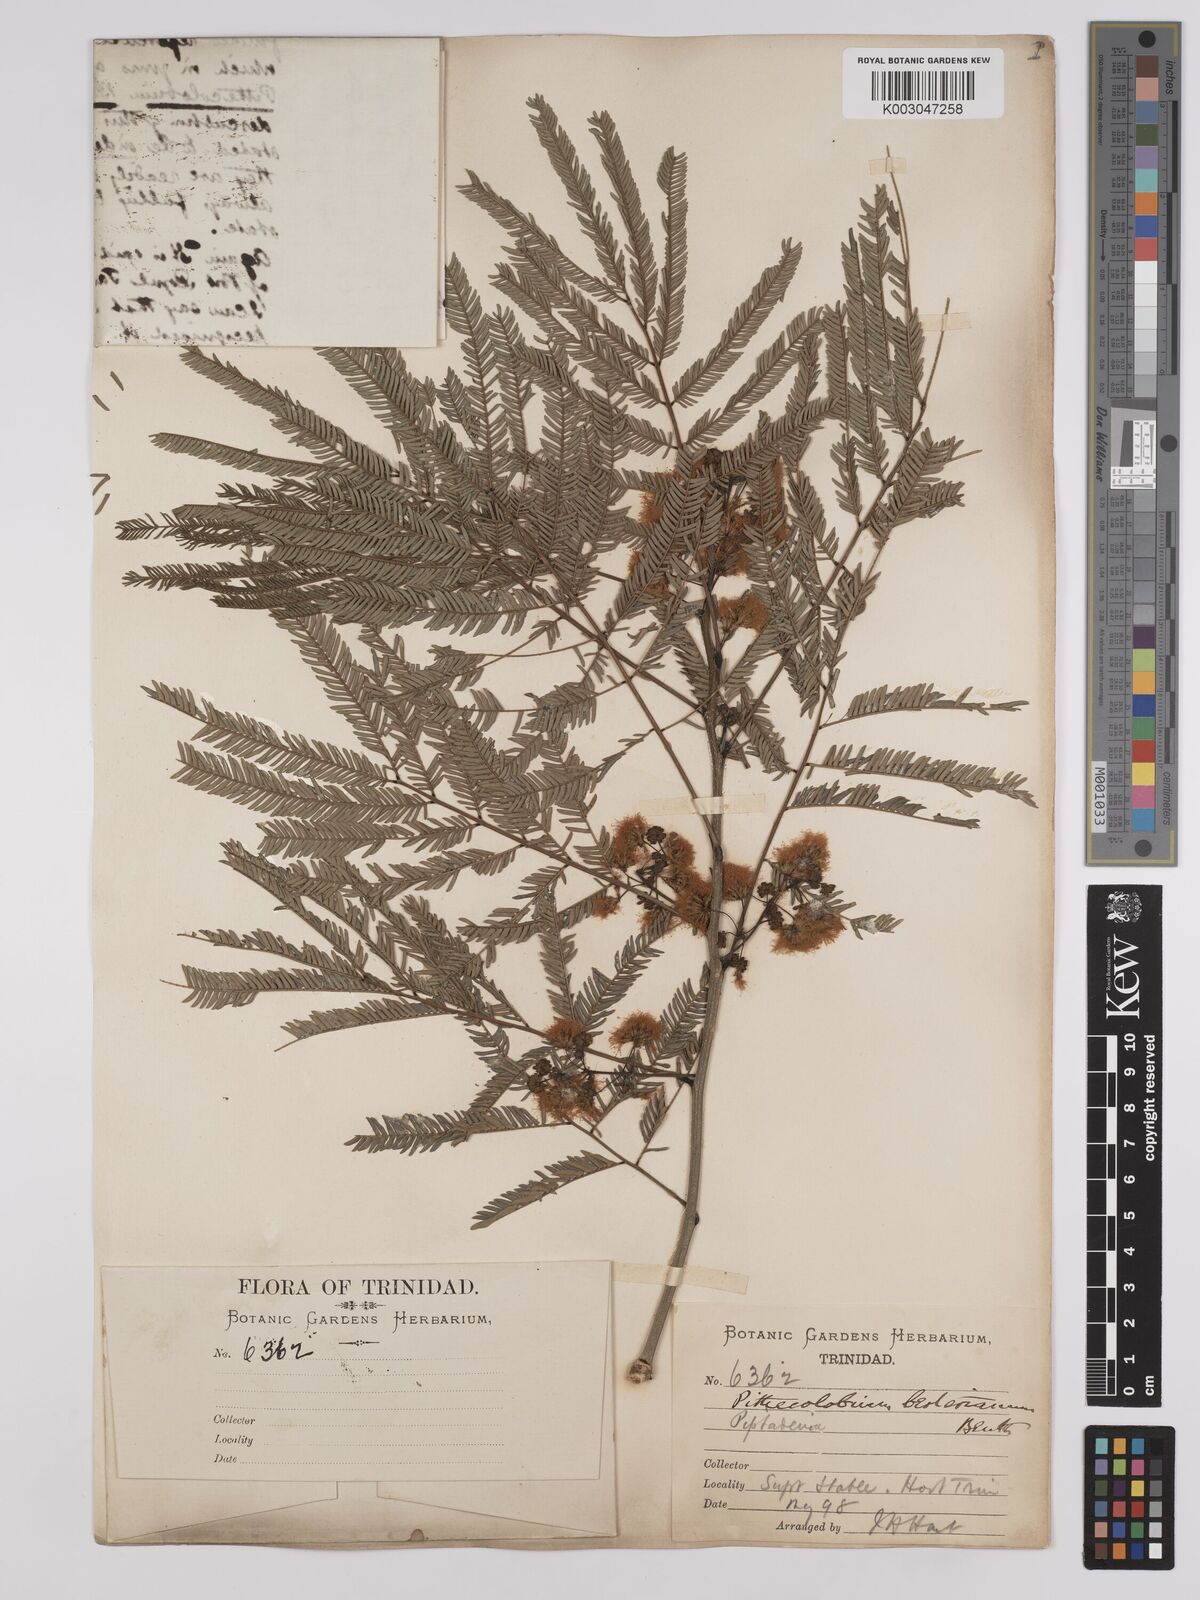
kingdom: Plantae
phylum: Tracheophyta
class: Magnoliopsida
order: Fabales
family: Fabaceae
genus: Albizia
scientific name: Albizia niopoides
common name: Silk tree
